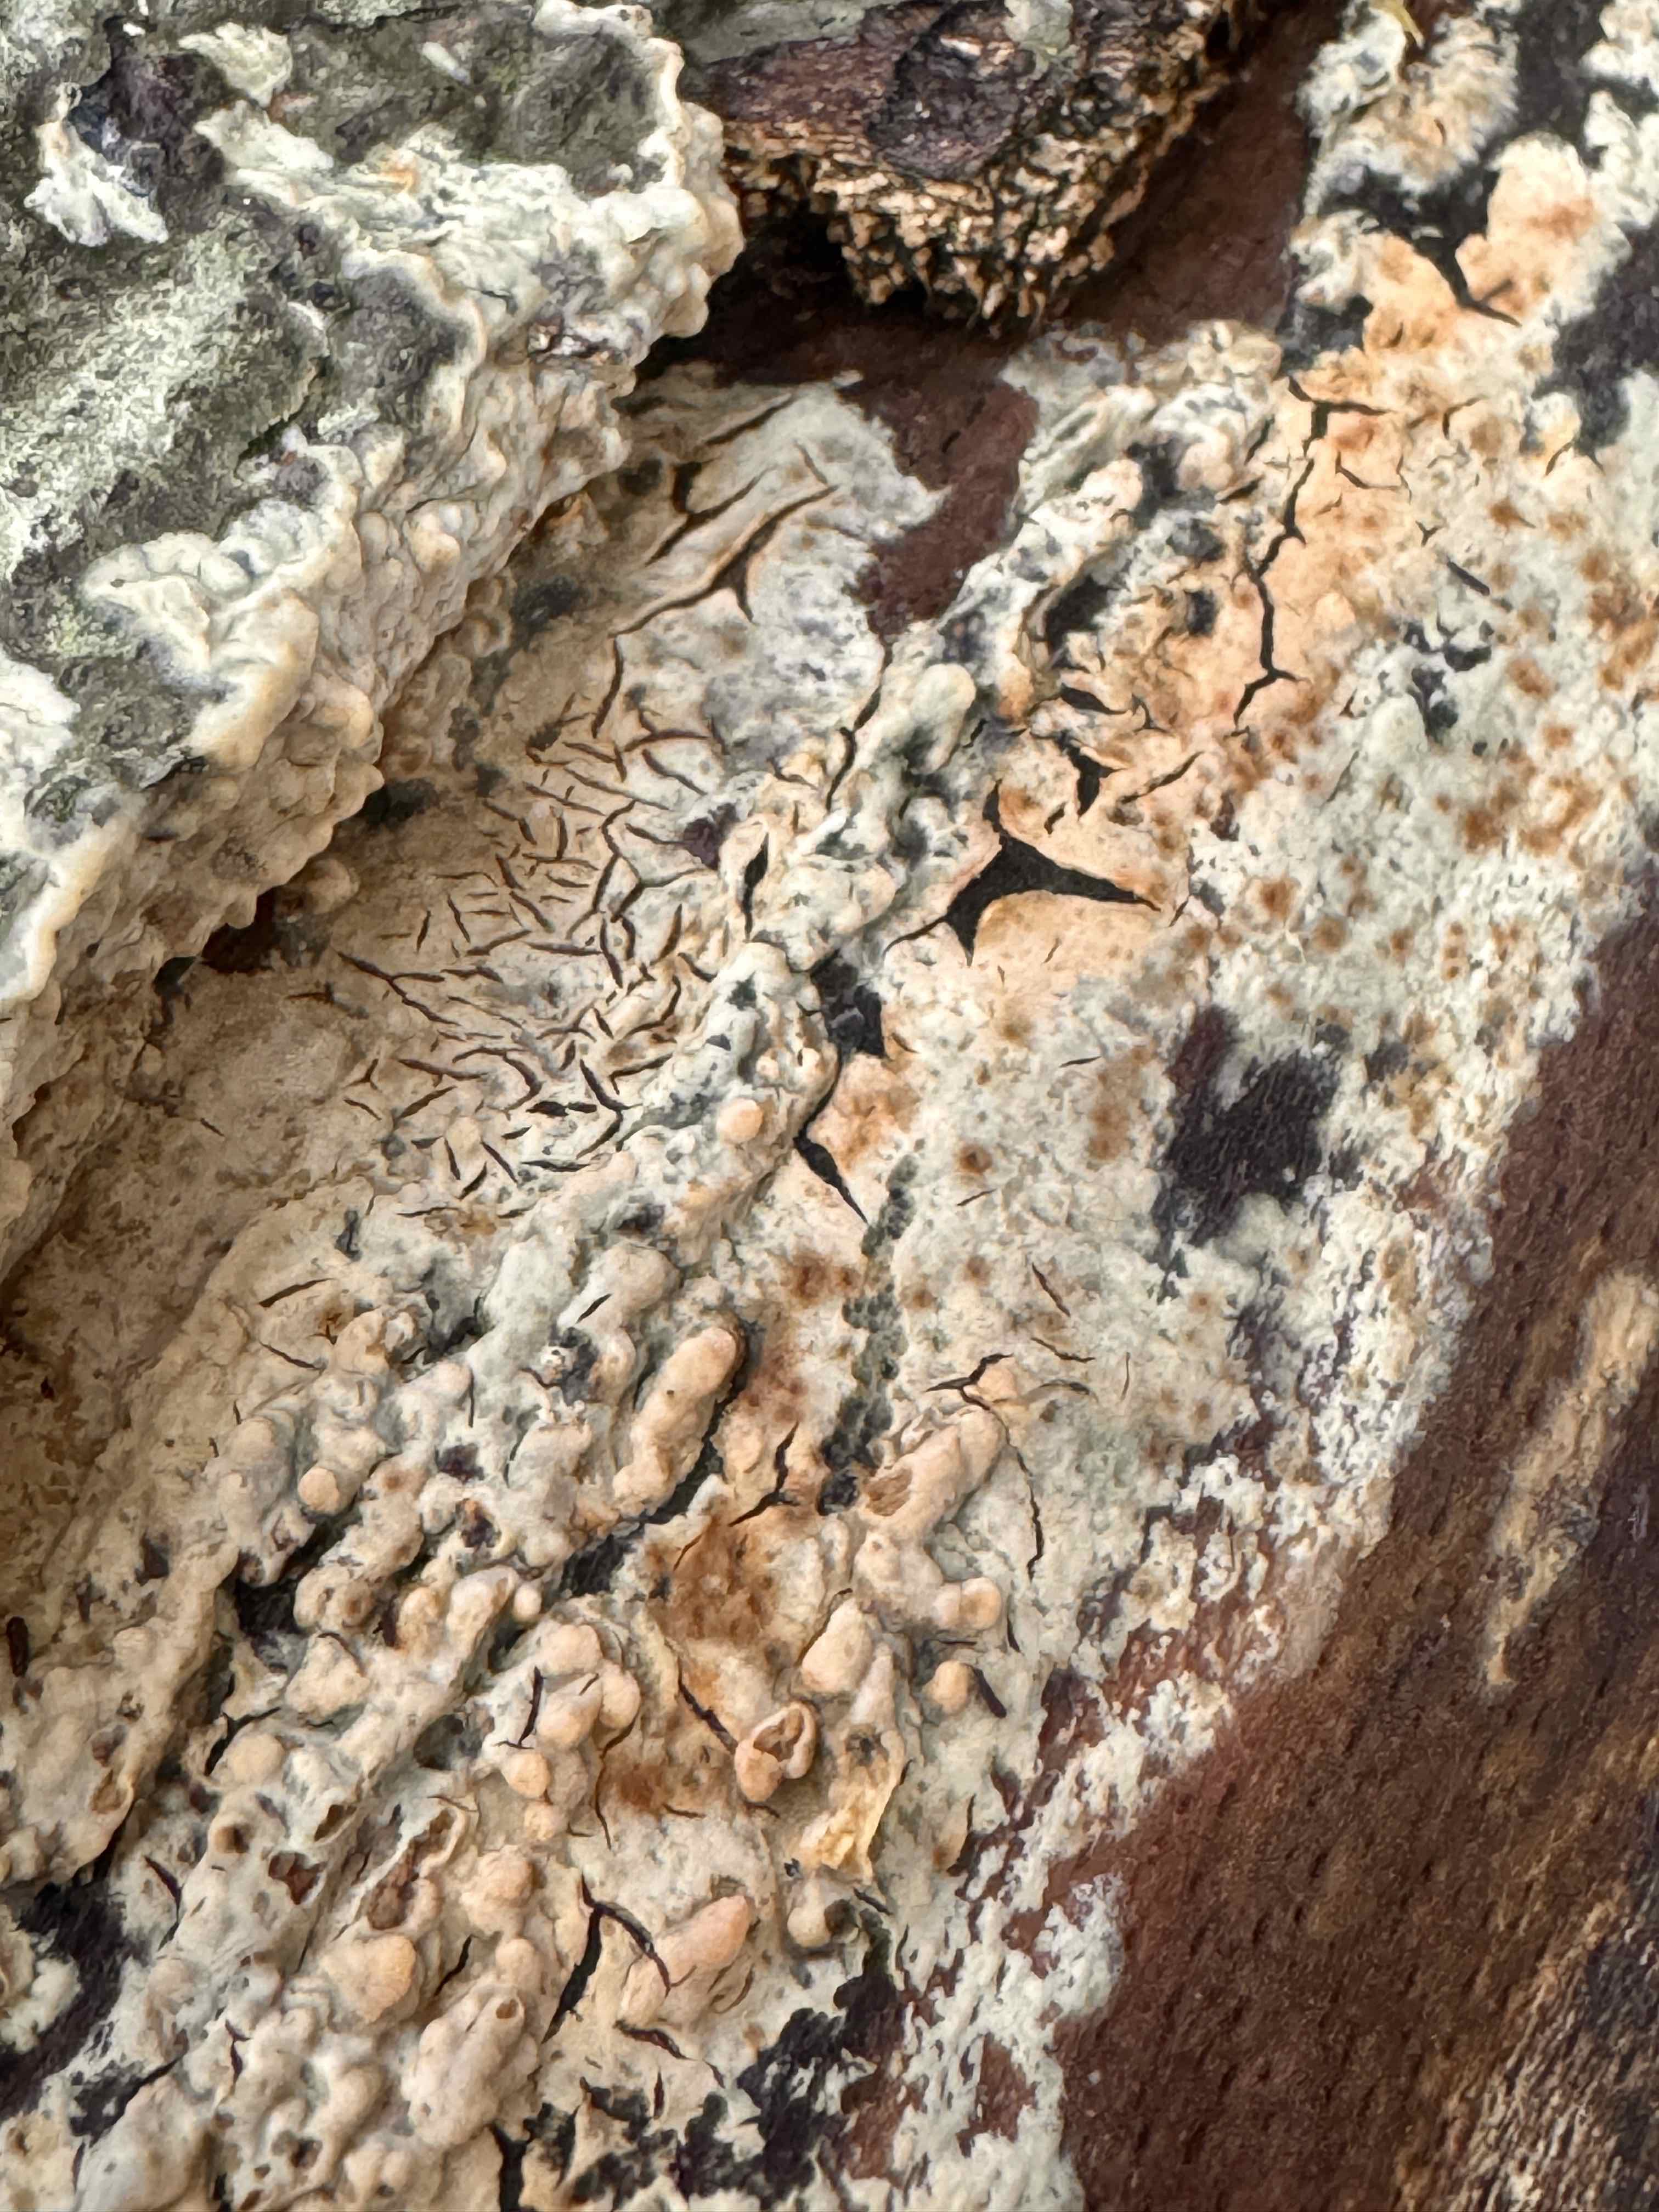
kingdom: Fungi
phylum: Basidiomycota
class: Agaricomycetes
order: Agaricales
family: Physalacriaceae
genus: Cylindrobasidium
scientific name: Cylindrobasidium evolvens
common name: sprækkehinde
